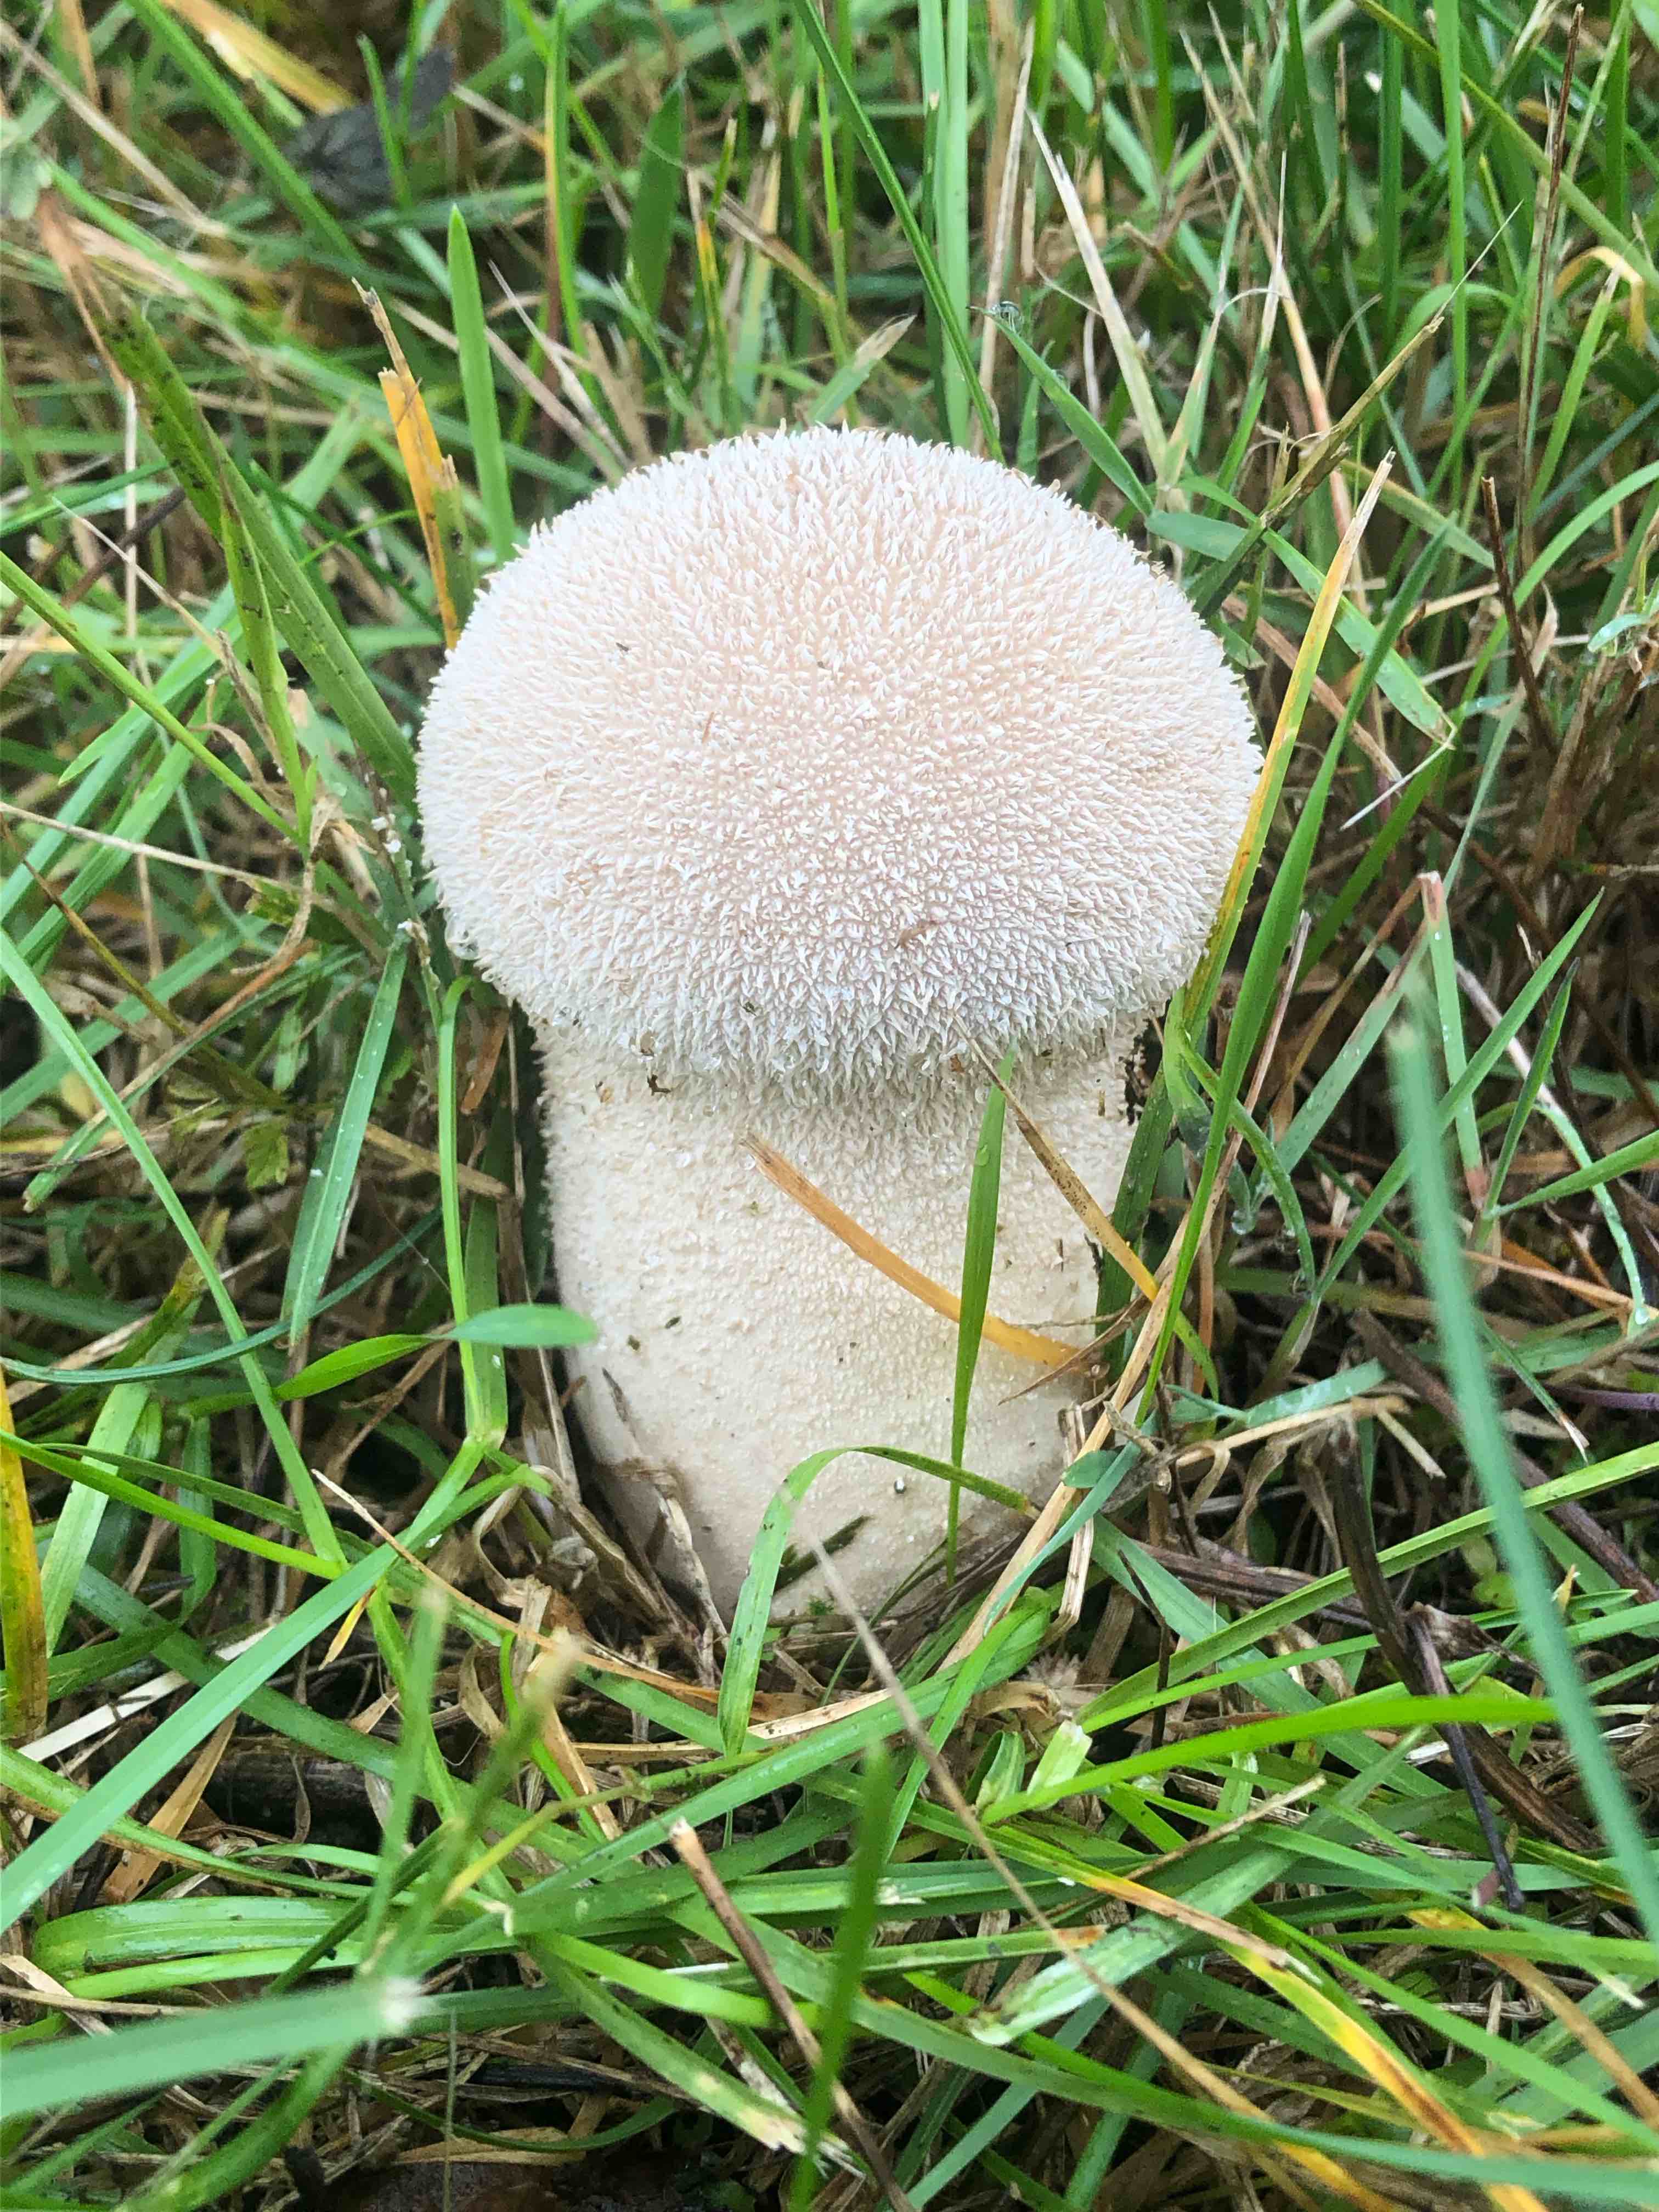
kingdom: Fungi
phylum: Basidiomycota
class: Agaricomycetes
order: Agaricales
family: Lycoperdaceae
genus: Lycoperdon
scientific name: Lycoperdon excipuliforme
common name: højstokket støvbold
